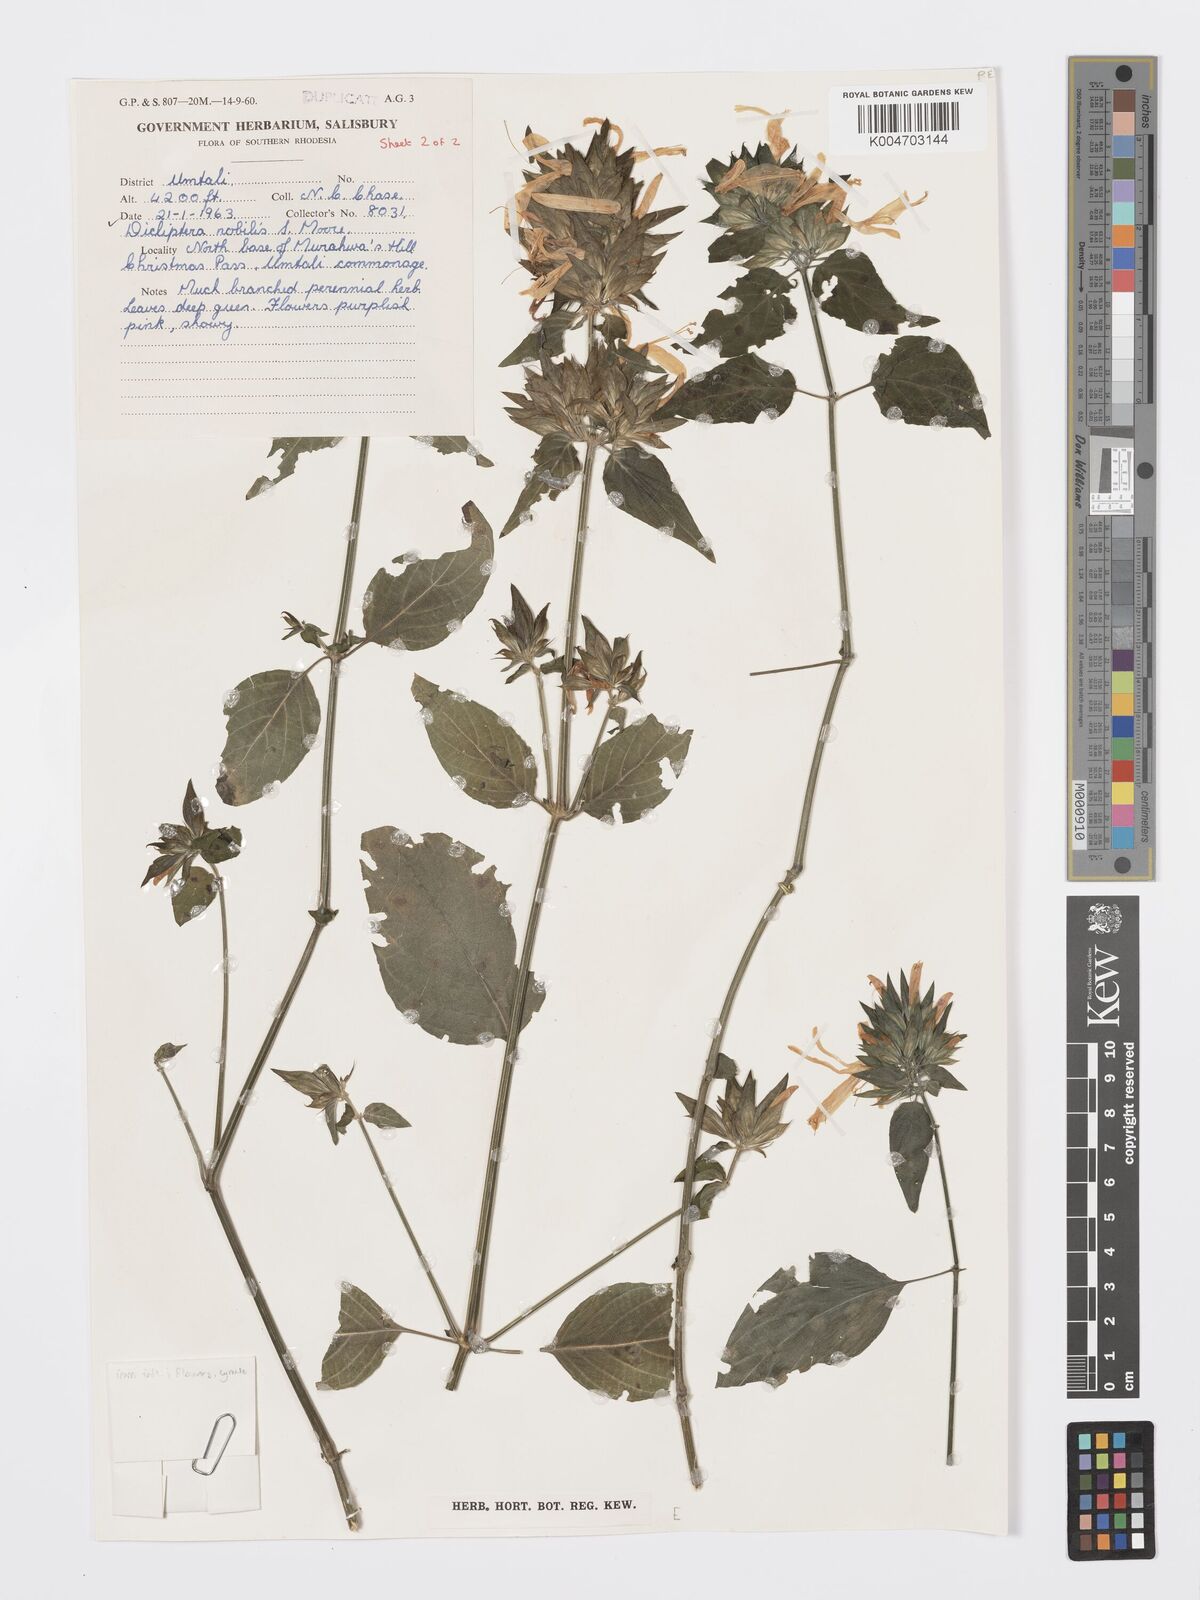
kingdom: Plantae
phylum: Tracheophyta
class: Magnoliopsida
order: Lamiales
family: Acanthaceae
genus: Dicliptera
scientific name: Dicliptera clinopodia
